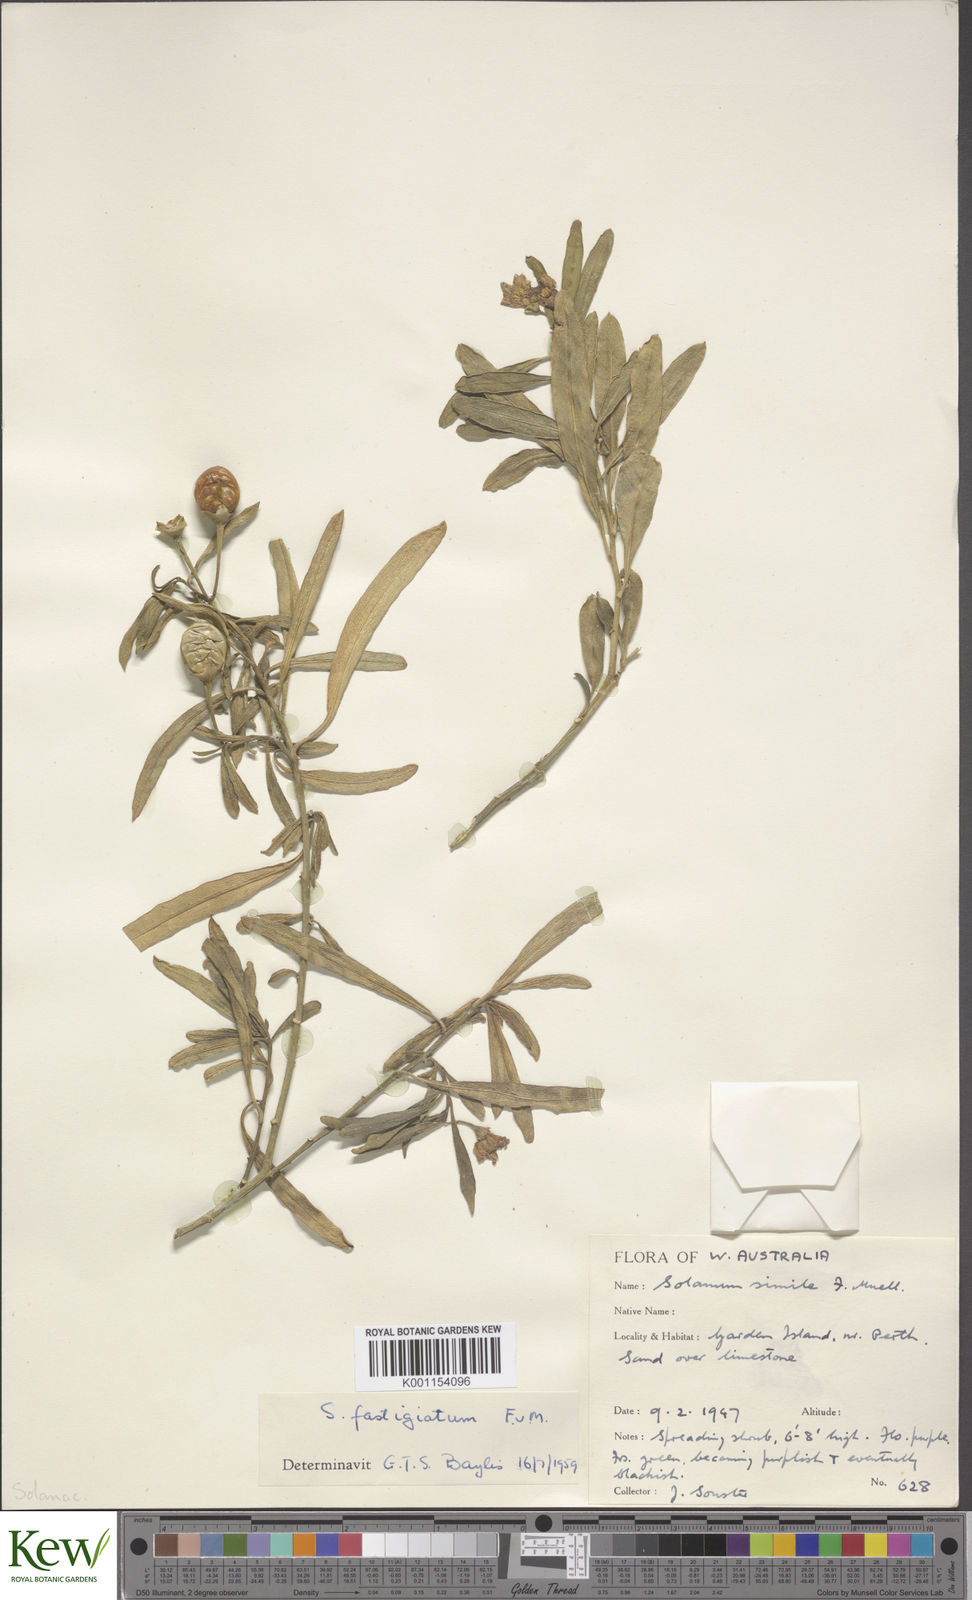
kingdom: Plantae
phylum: Tracheophyta
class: Magnoliopsida
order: Solanales
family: Solanaceae
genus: Solanum
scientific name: Solanum symonii
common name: South australian kangaroo-apple
